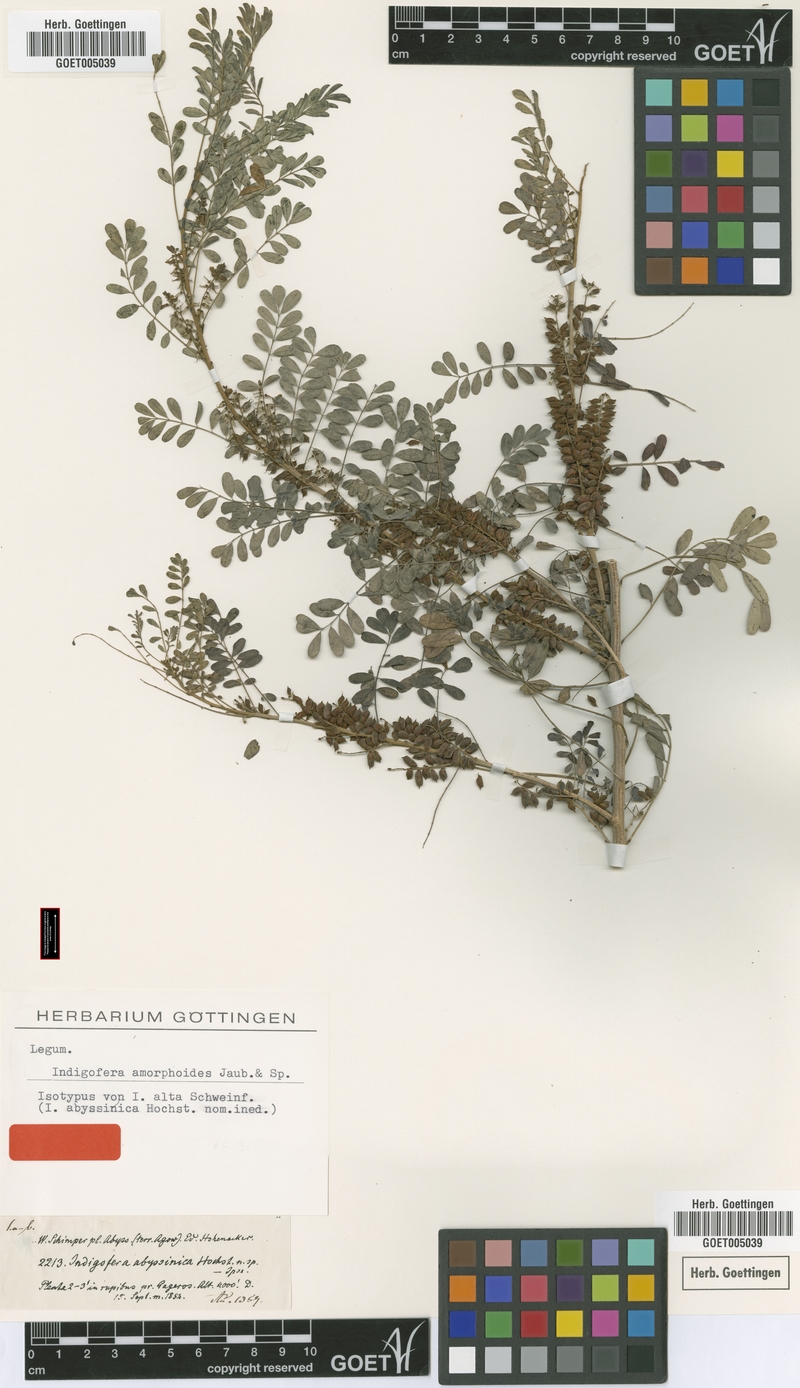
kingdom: Plantae
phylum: Tracheophyta
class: Magnoliopsida
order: Fabales
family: Fabaceae
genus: Indigofera
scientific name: Indigofera amorphoides
